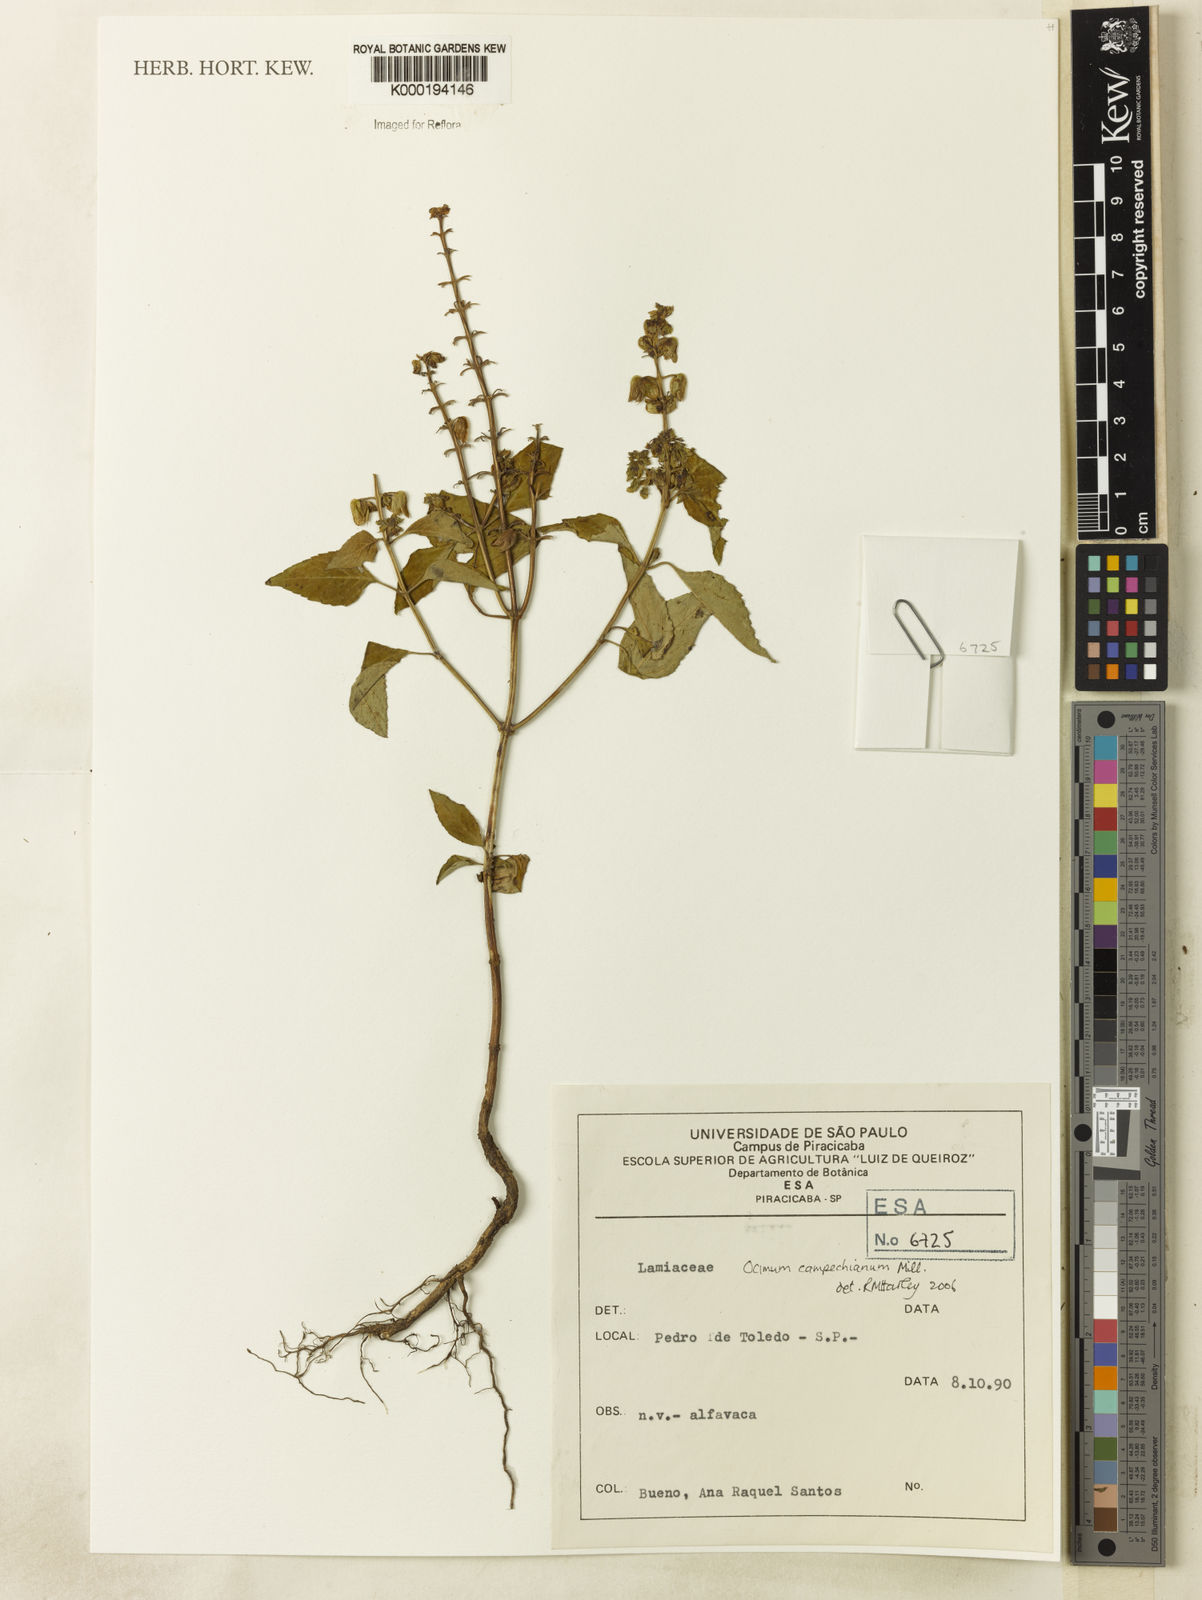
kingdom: Plantae
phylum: Tracheophyta
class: Magnoliopsida
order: Lamiales
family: Lamiaceae
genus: Ocimum
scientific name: Ocimum campechianum
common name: Mosquito basil
